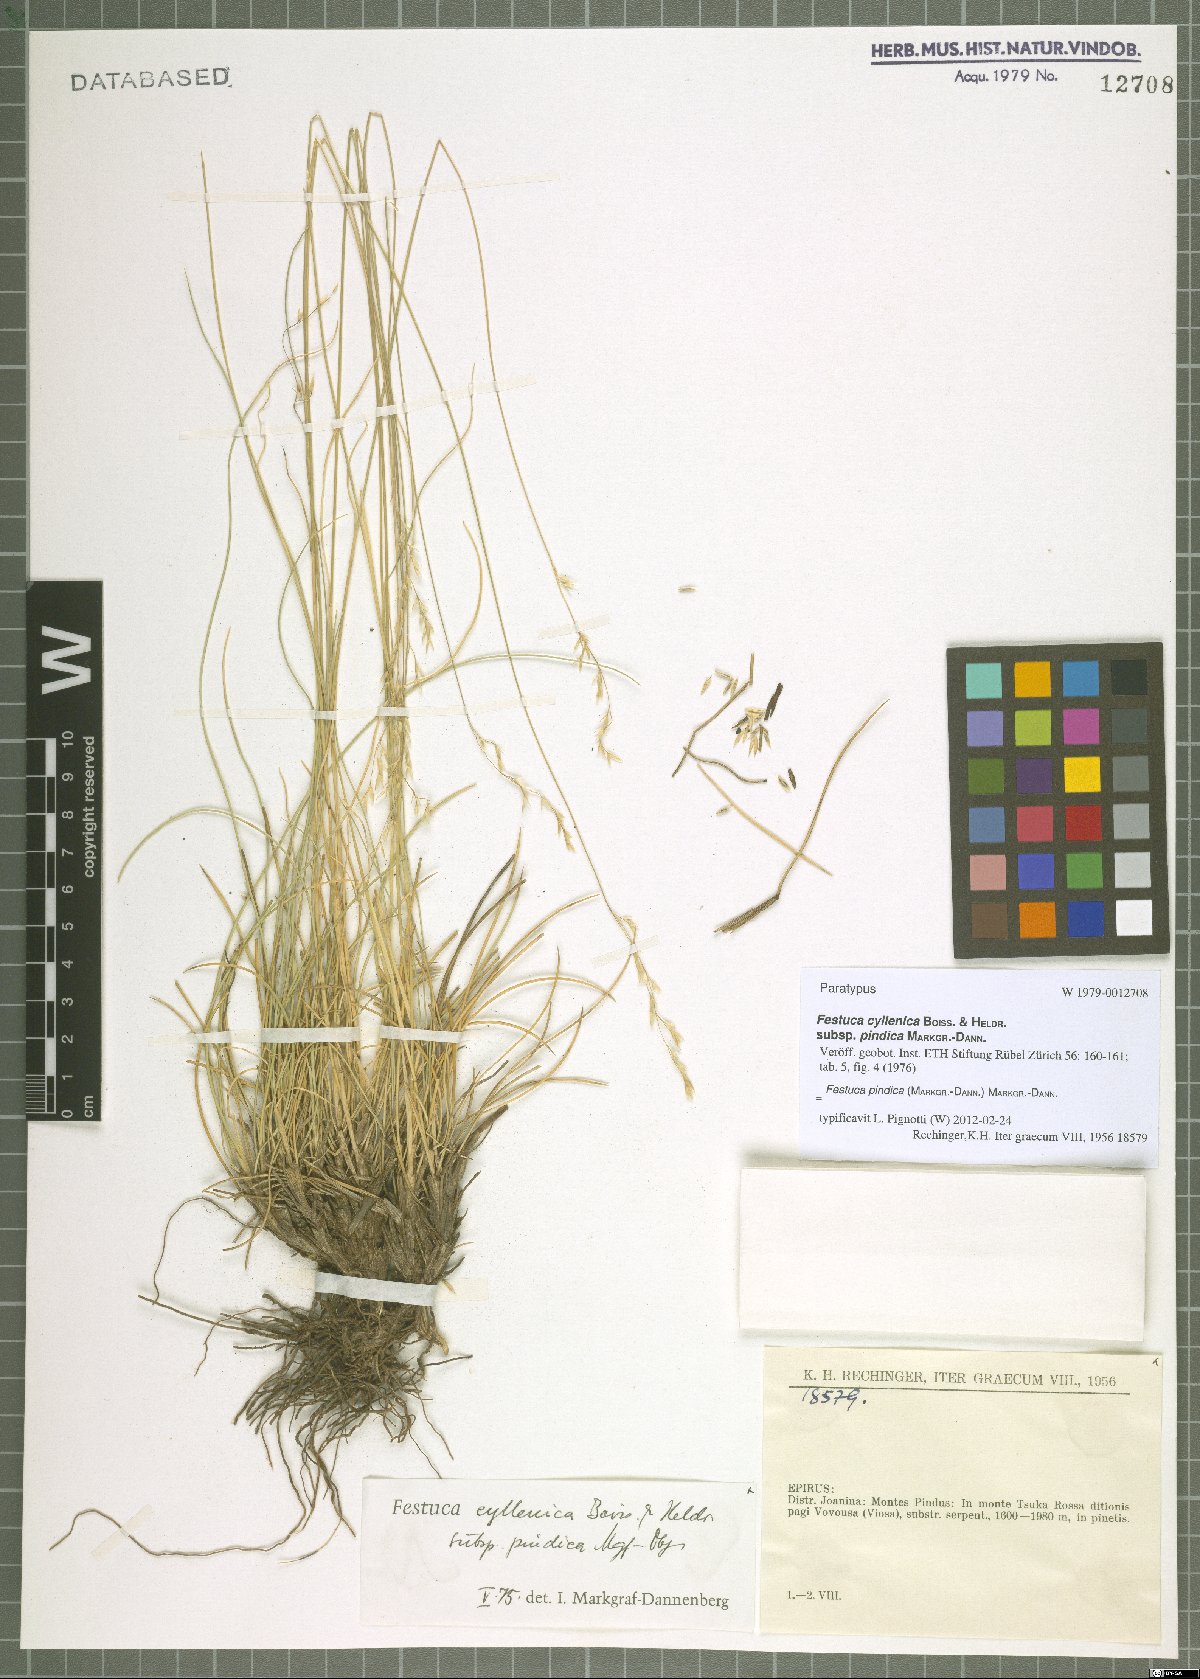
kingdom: Plantae
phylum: Tracheophyta
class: Liliopsida
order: Poales
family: Poaceae
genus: Festuca
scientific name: Festuca pindica
